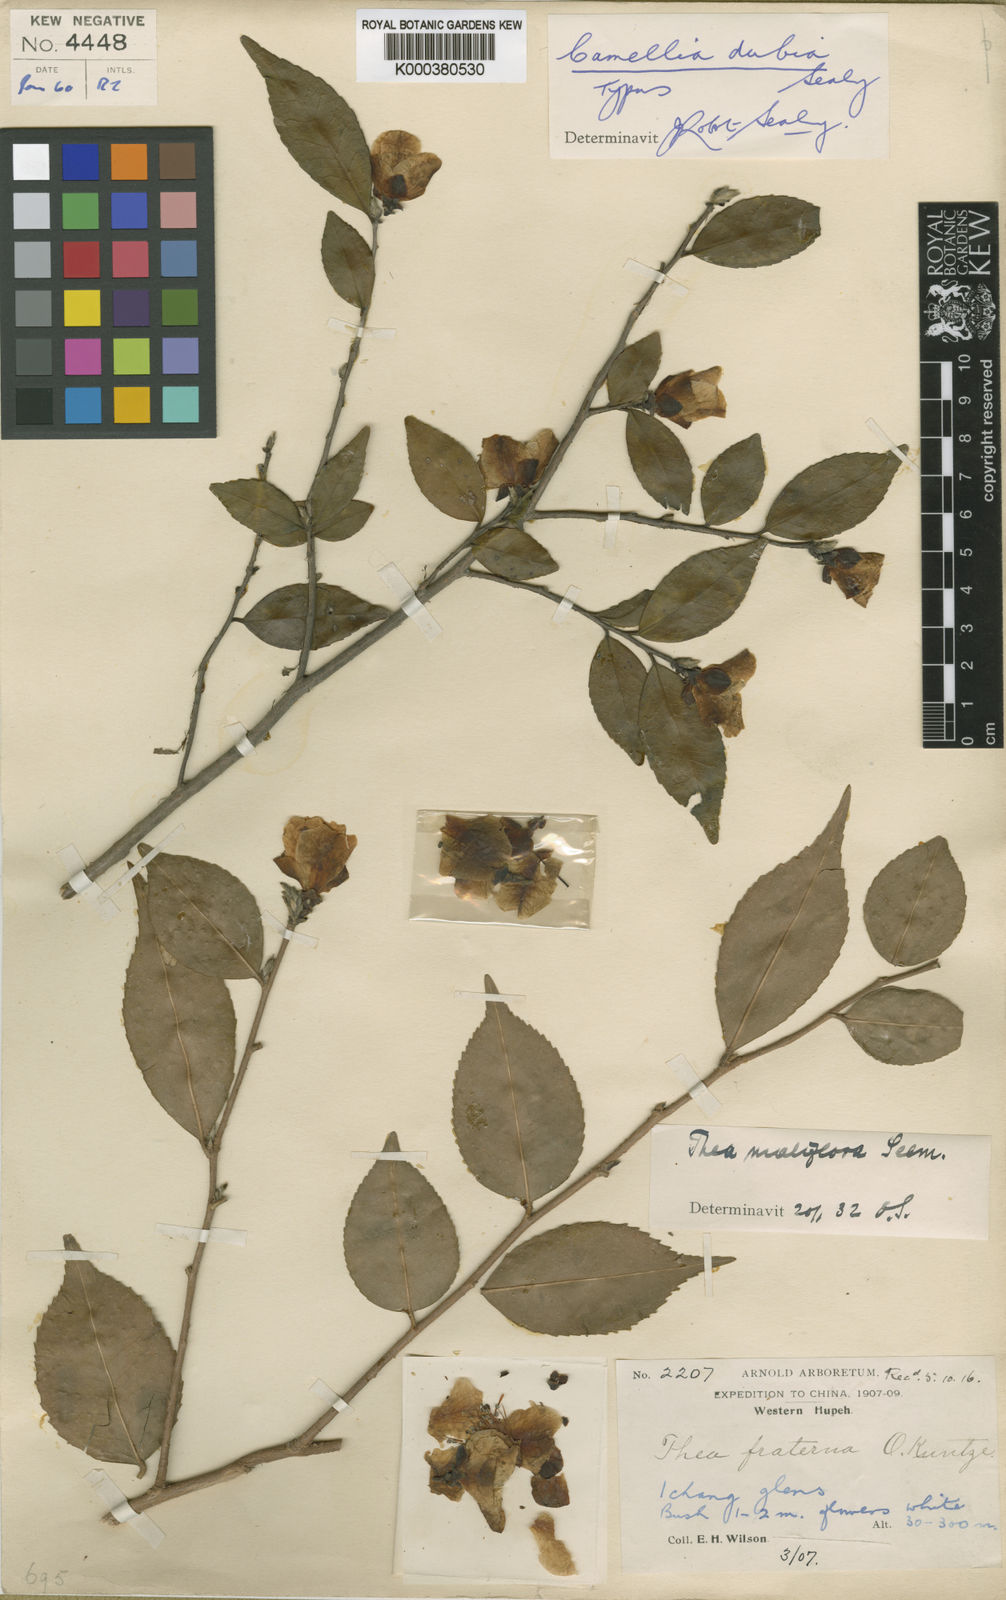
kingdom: Plantae
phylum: Tracheophyta
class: Magnoliopsida
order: Ericales
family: Theaceae
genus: Camellia
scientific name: Camellia costei
